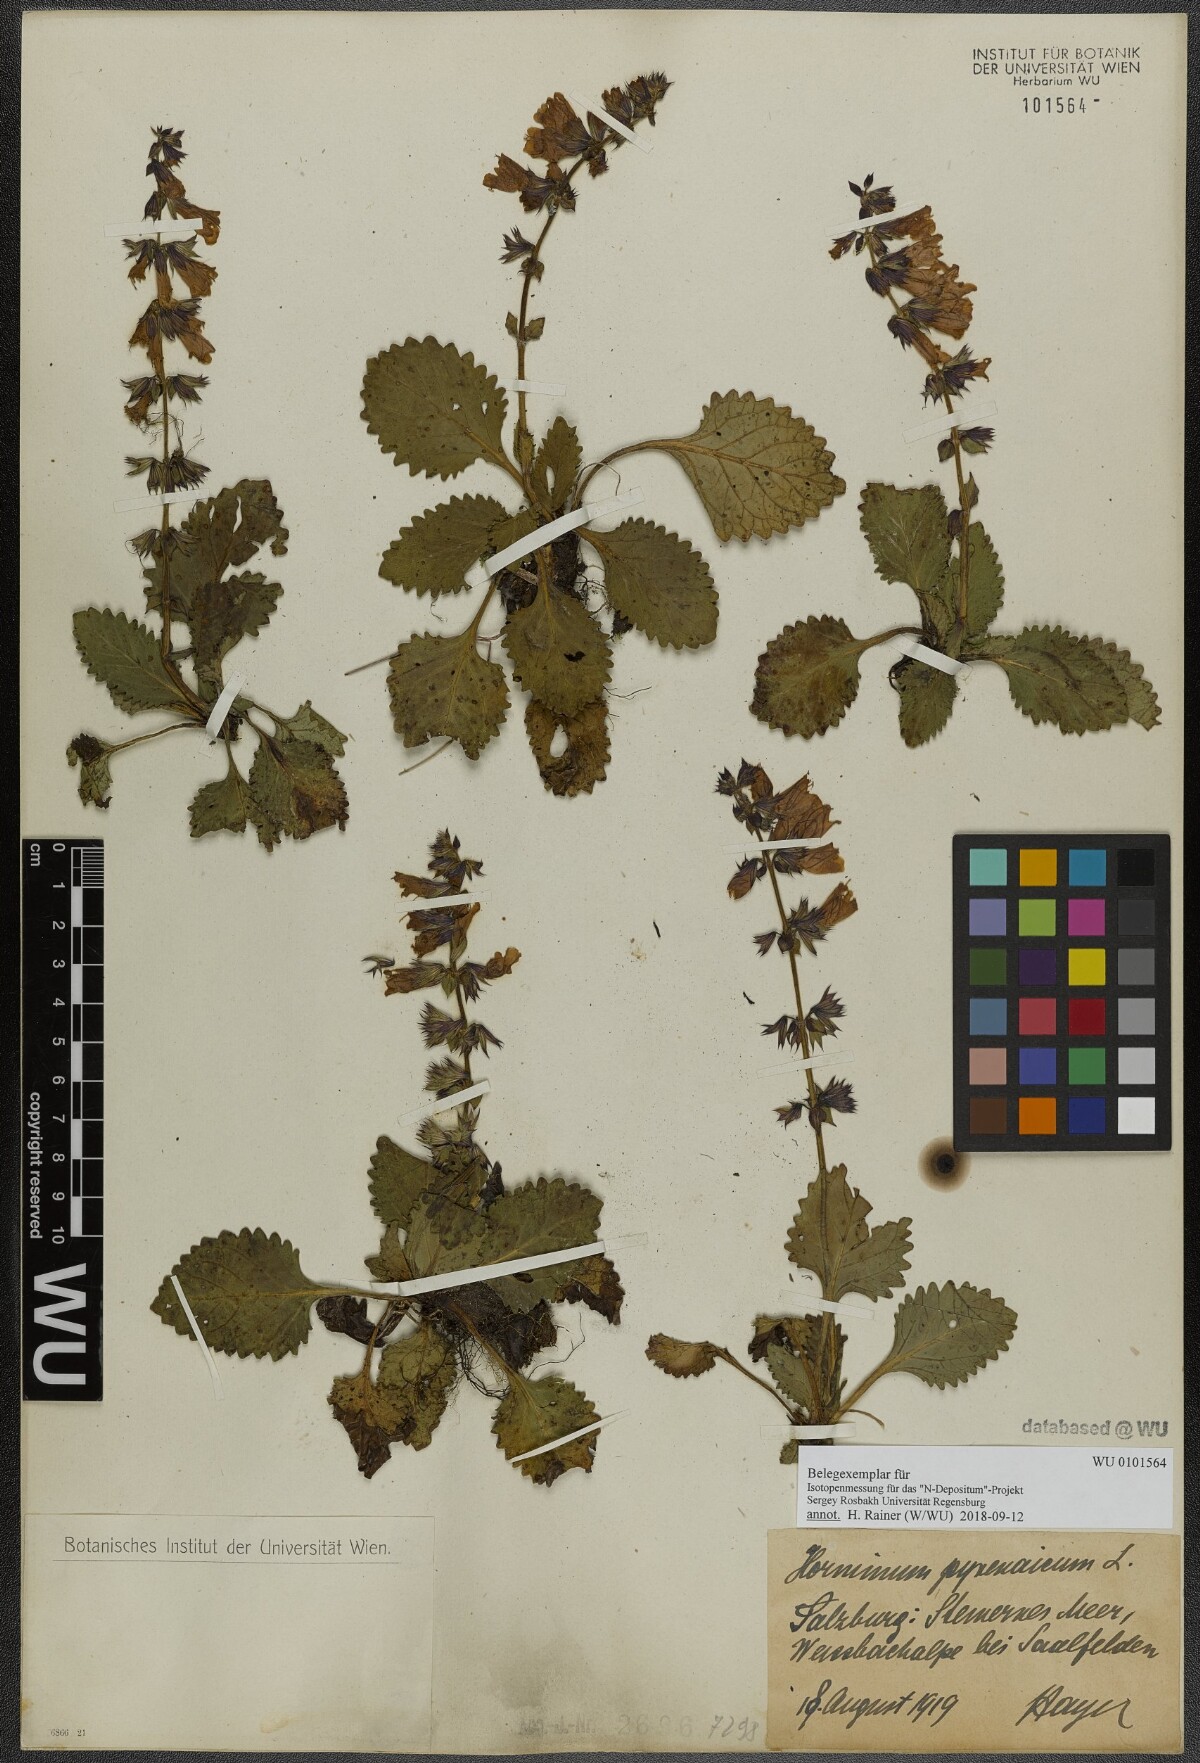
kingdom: Plantae
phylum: Tracheophyta
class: Magnoliopsida
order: Lamiales
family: Lamiaceae
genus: Horminum
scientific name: Horminum pyrenaicum
